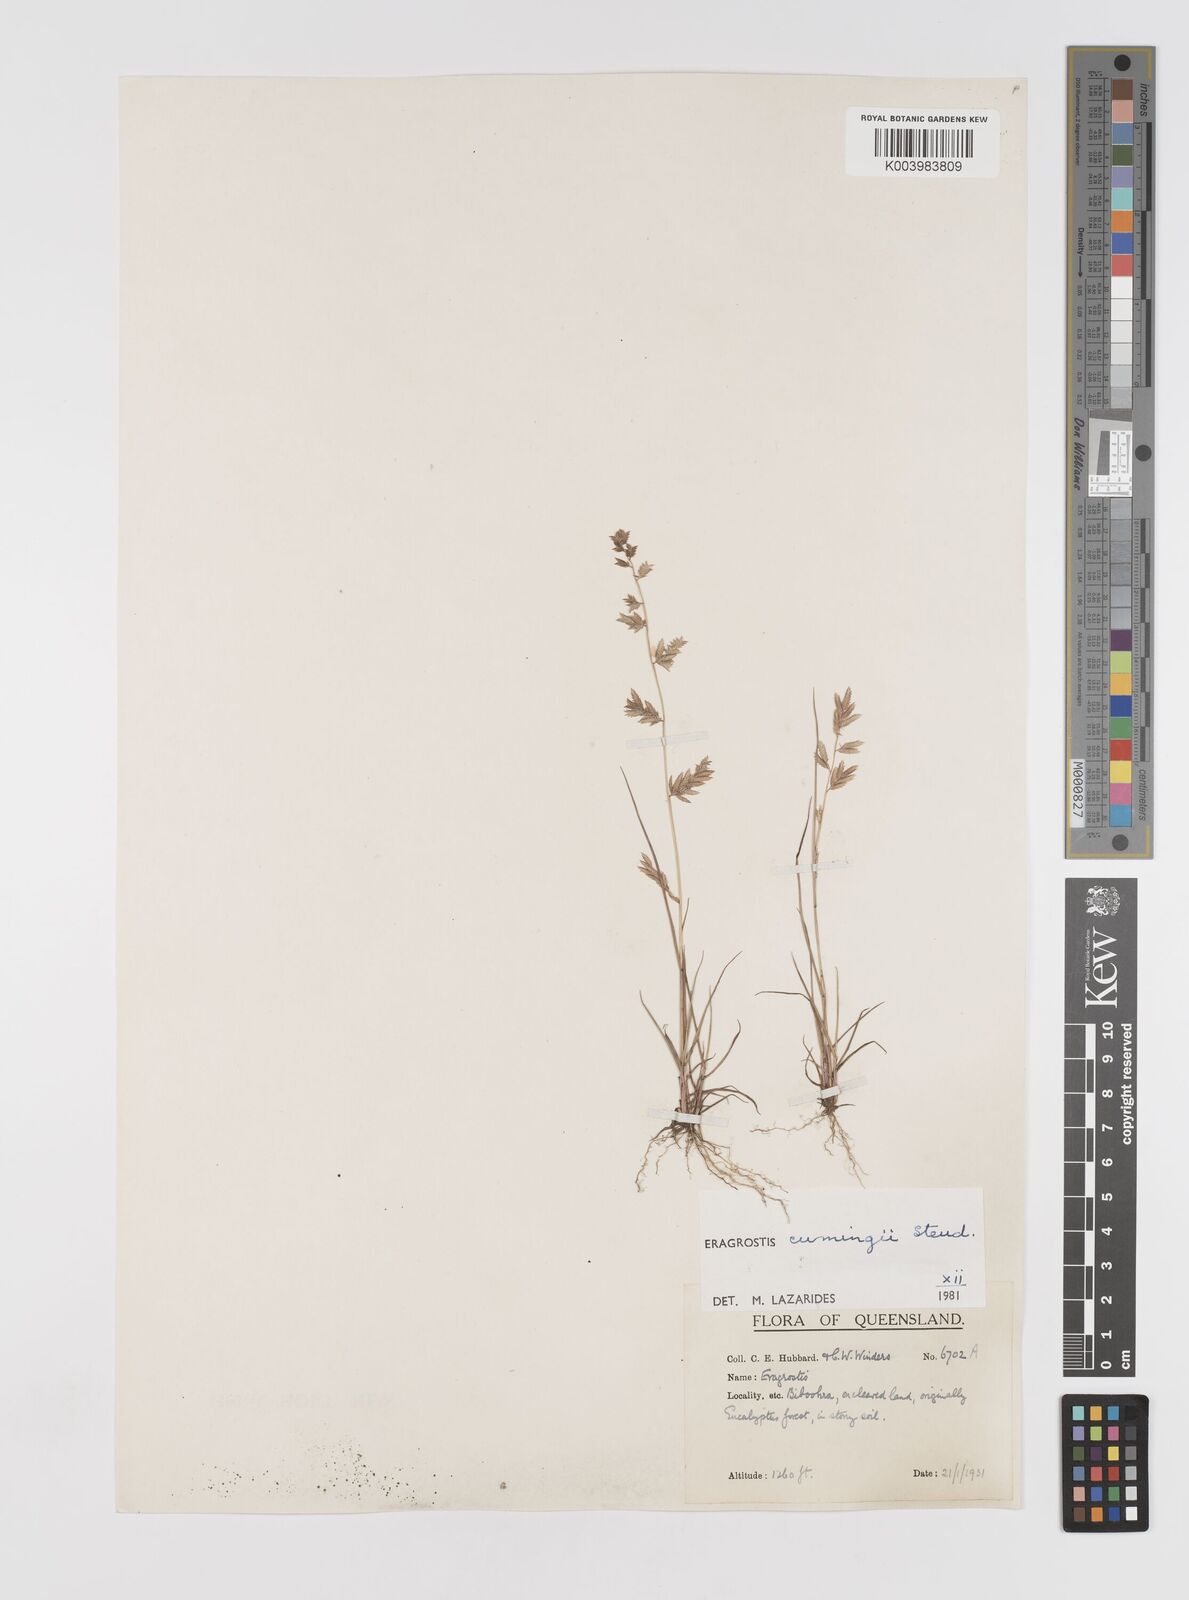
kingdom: Plantae
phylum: Tracheophyta
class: Liliopsida
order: Poales
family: Poaceae
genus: Eragrostis
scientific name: Eragrostis cumingii
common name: Cuming's lovegrass
